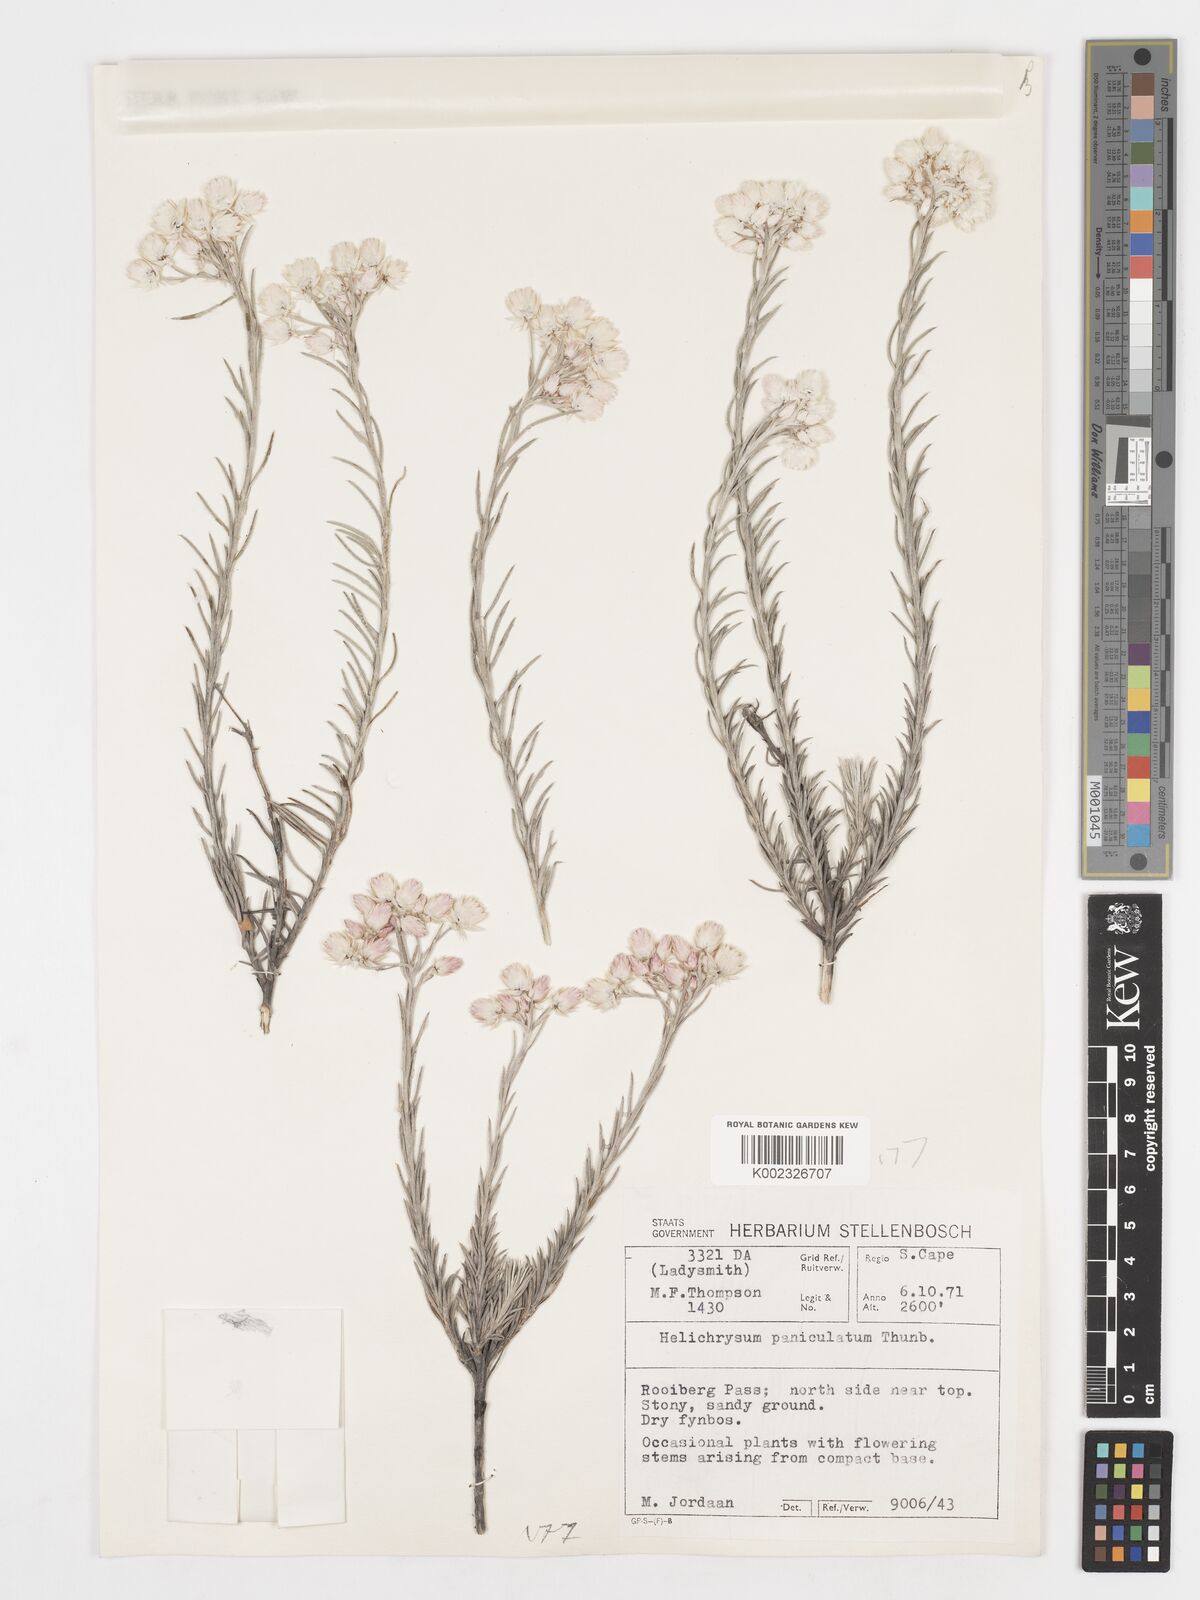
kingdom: Plantae
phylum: Tracheophyta
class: Magnoliopsida
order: Asterales
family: Asteraceae
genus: Achyranthemum
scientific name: Achyranthemum paniculatum
